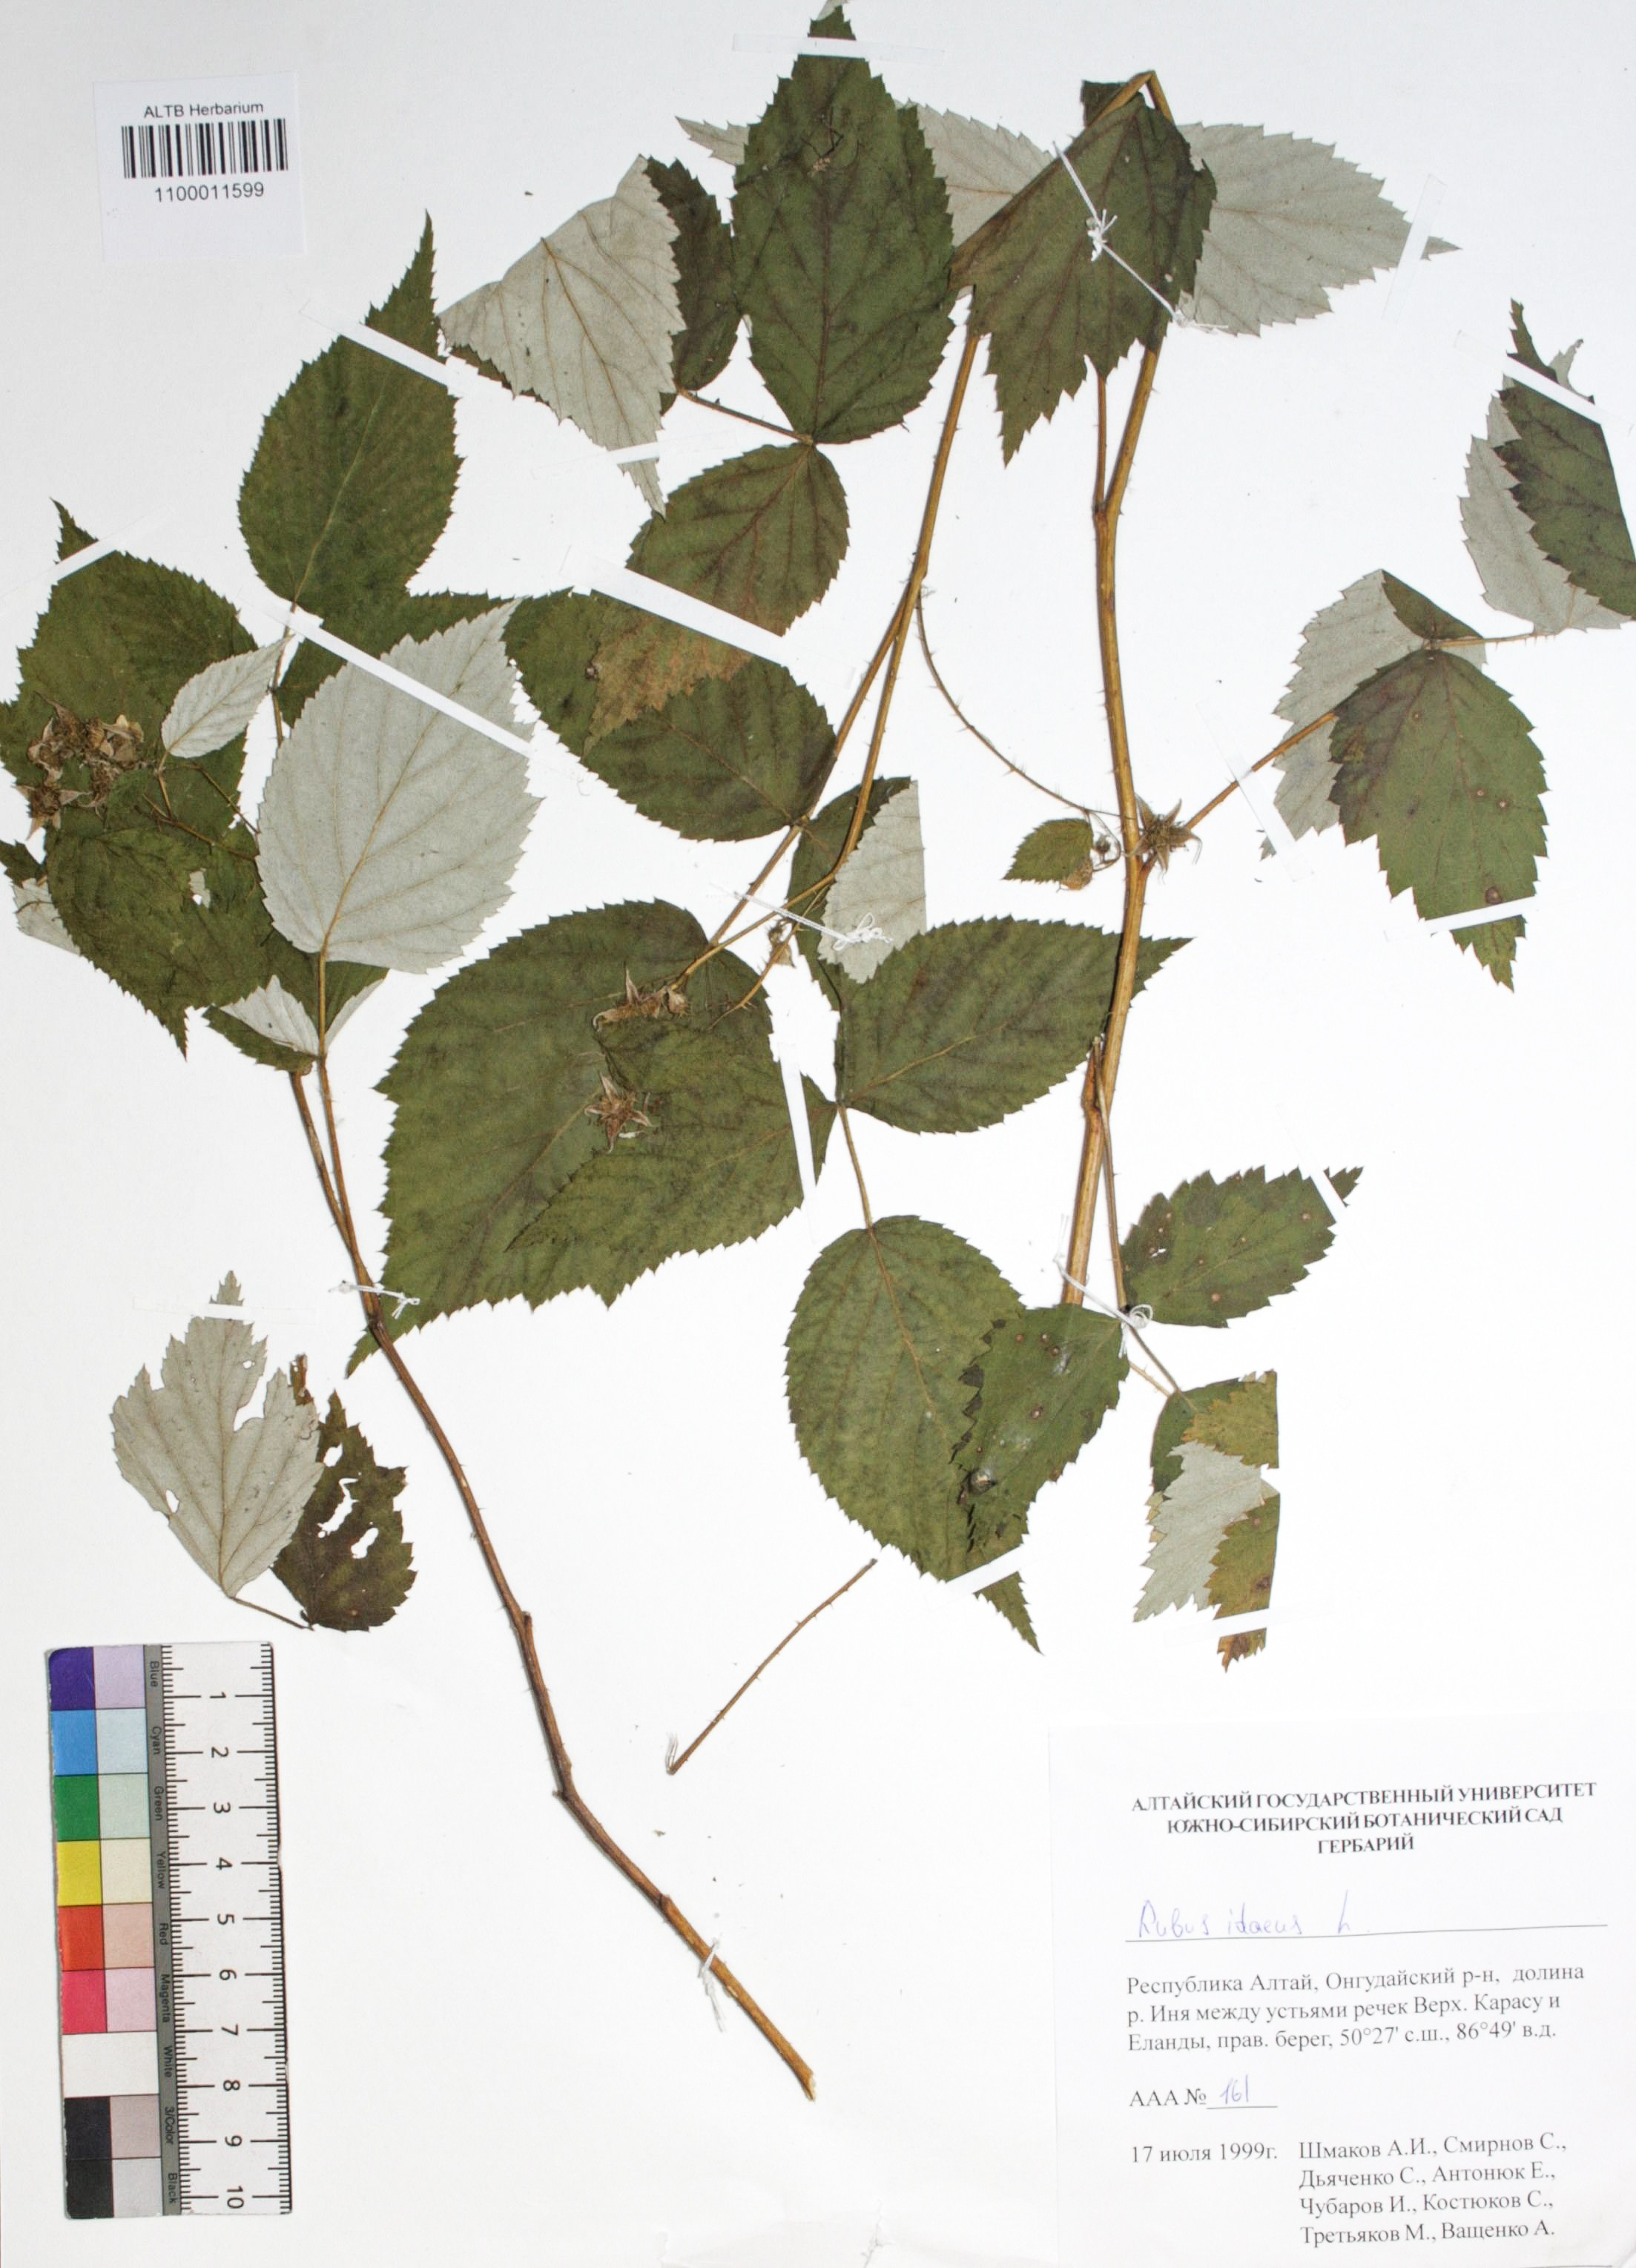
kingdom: Plantae
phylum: Tracheophyta
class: Magnoliopsida
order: Rosales
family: Rosaceae
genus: Rubus
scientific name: Rubus idaeus
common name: Raspberry
